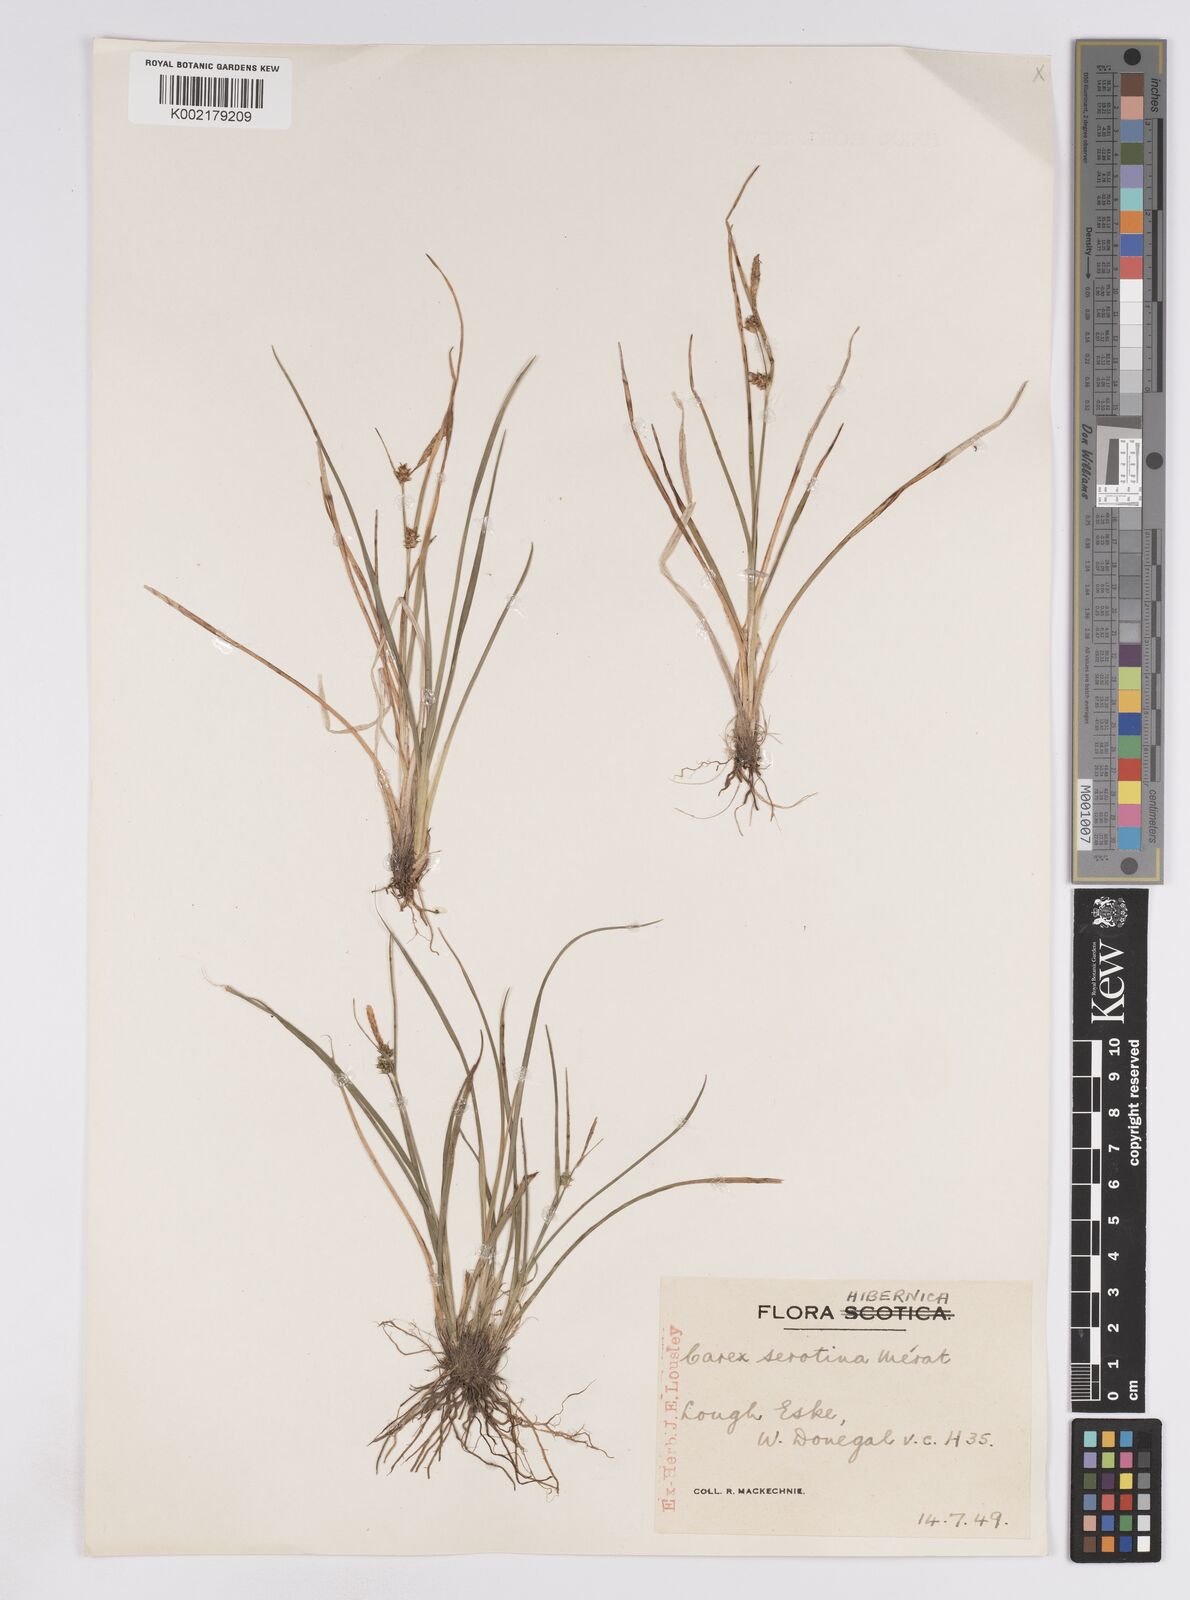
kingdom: Plantae
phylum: Tracheophyta
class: Liliopsida
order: Poales
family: Cyperaceae
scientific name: Cyperaceae
